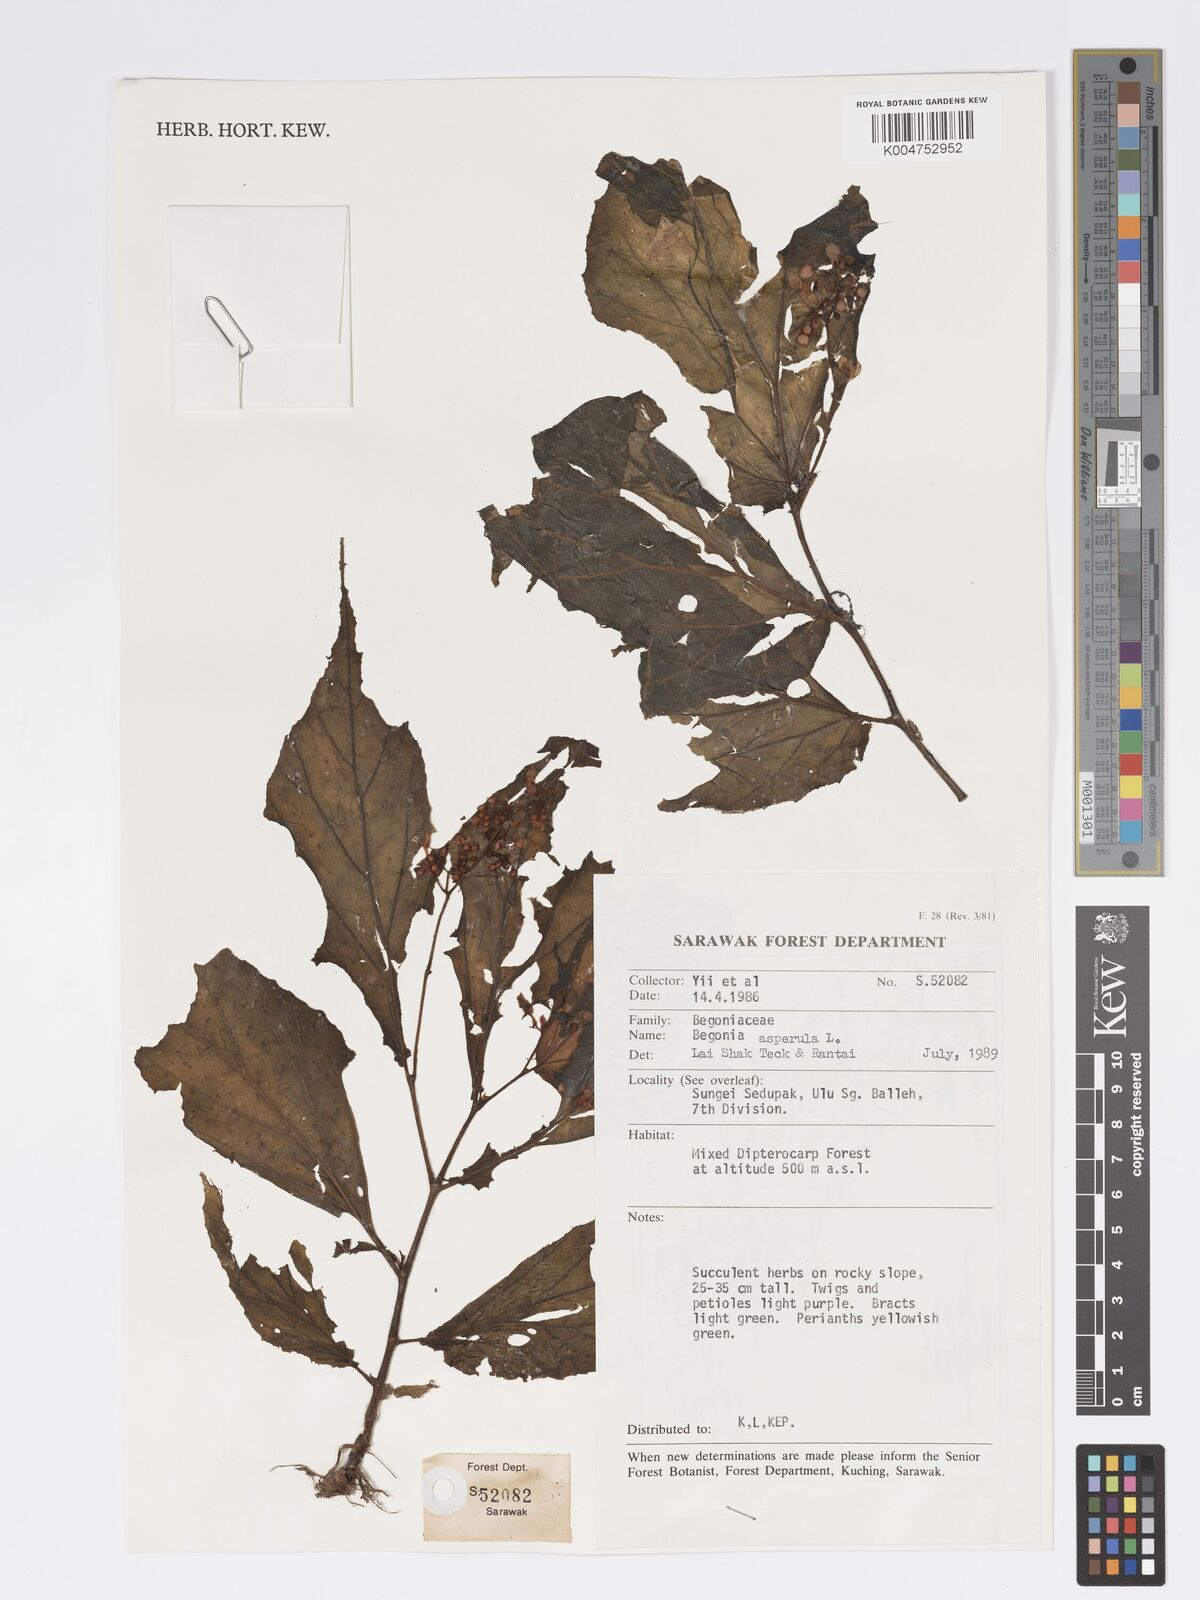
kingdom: Plantae
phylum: Tracheophyta
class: Magnoliopsida
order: Cucurbitales
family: Begoniaceae
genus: Begonia
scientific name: Begonia
